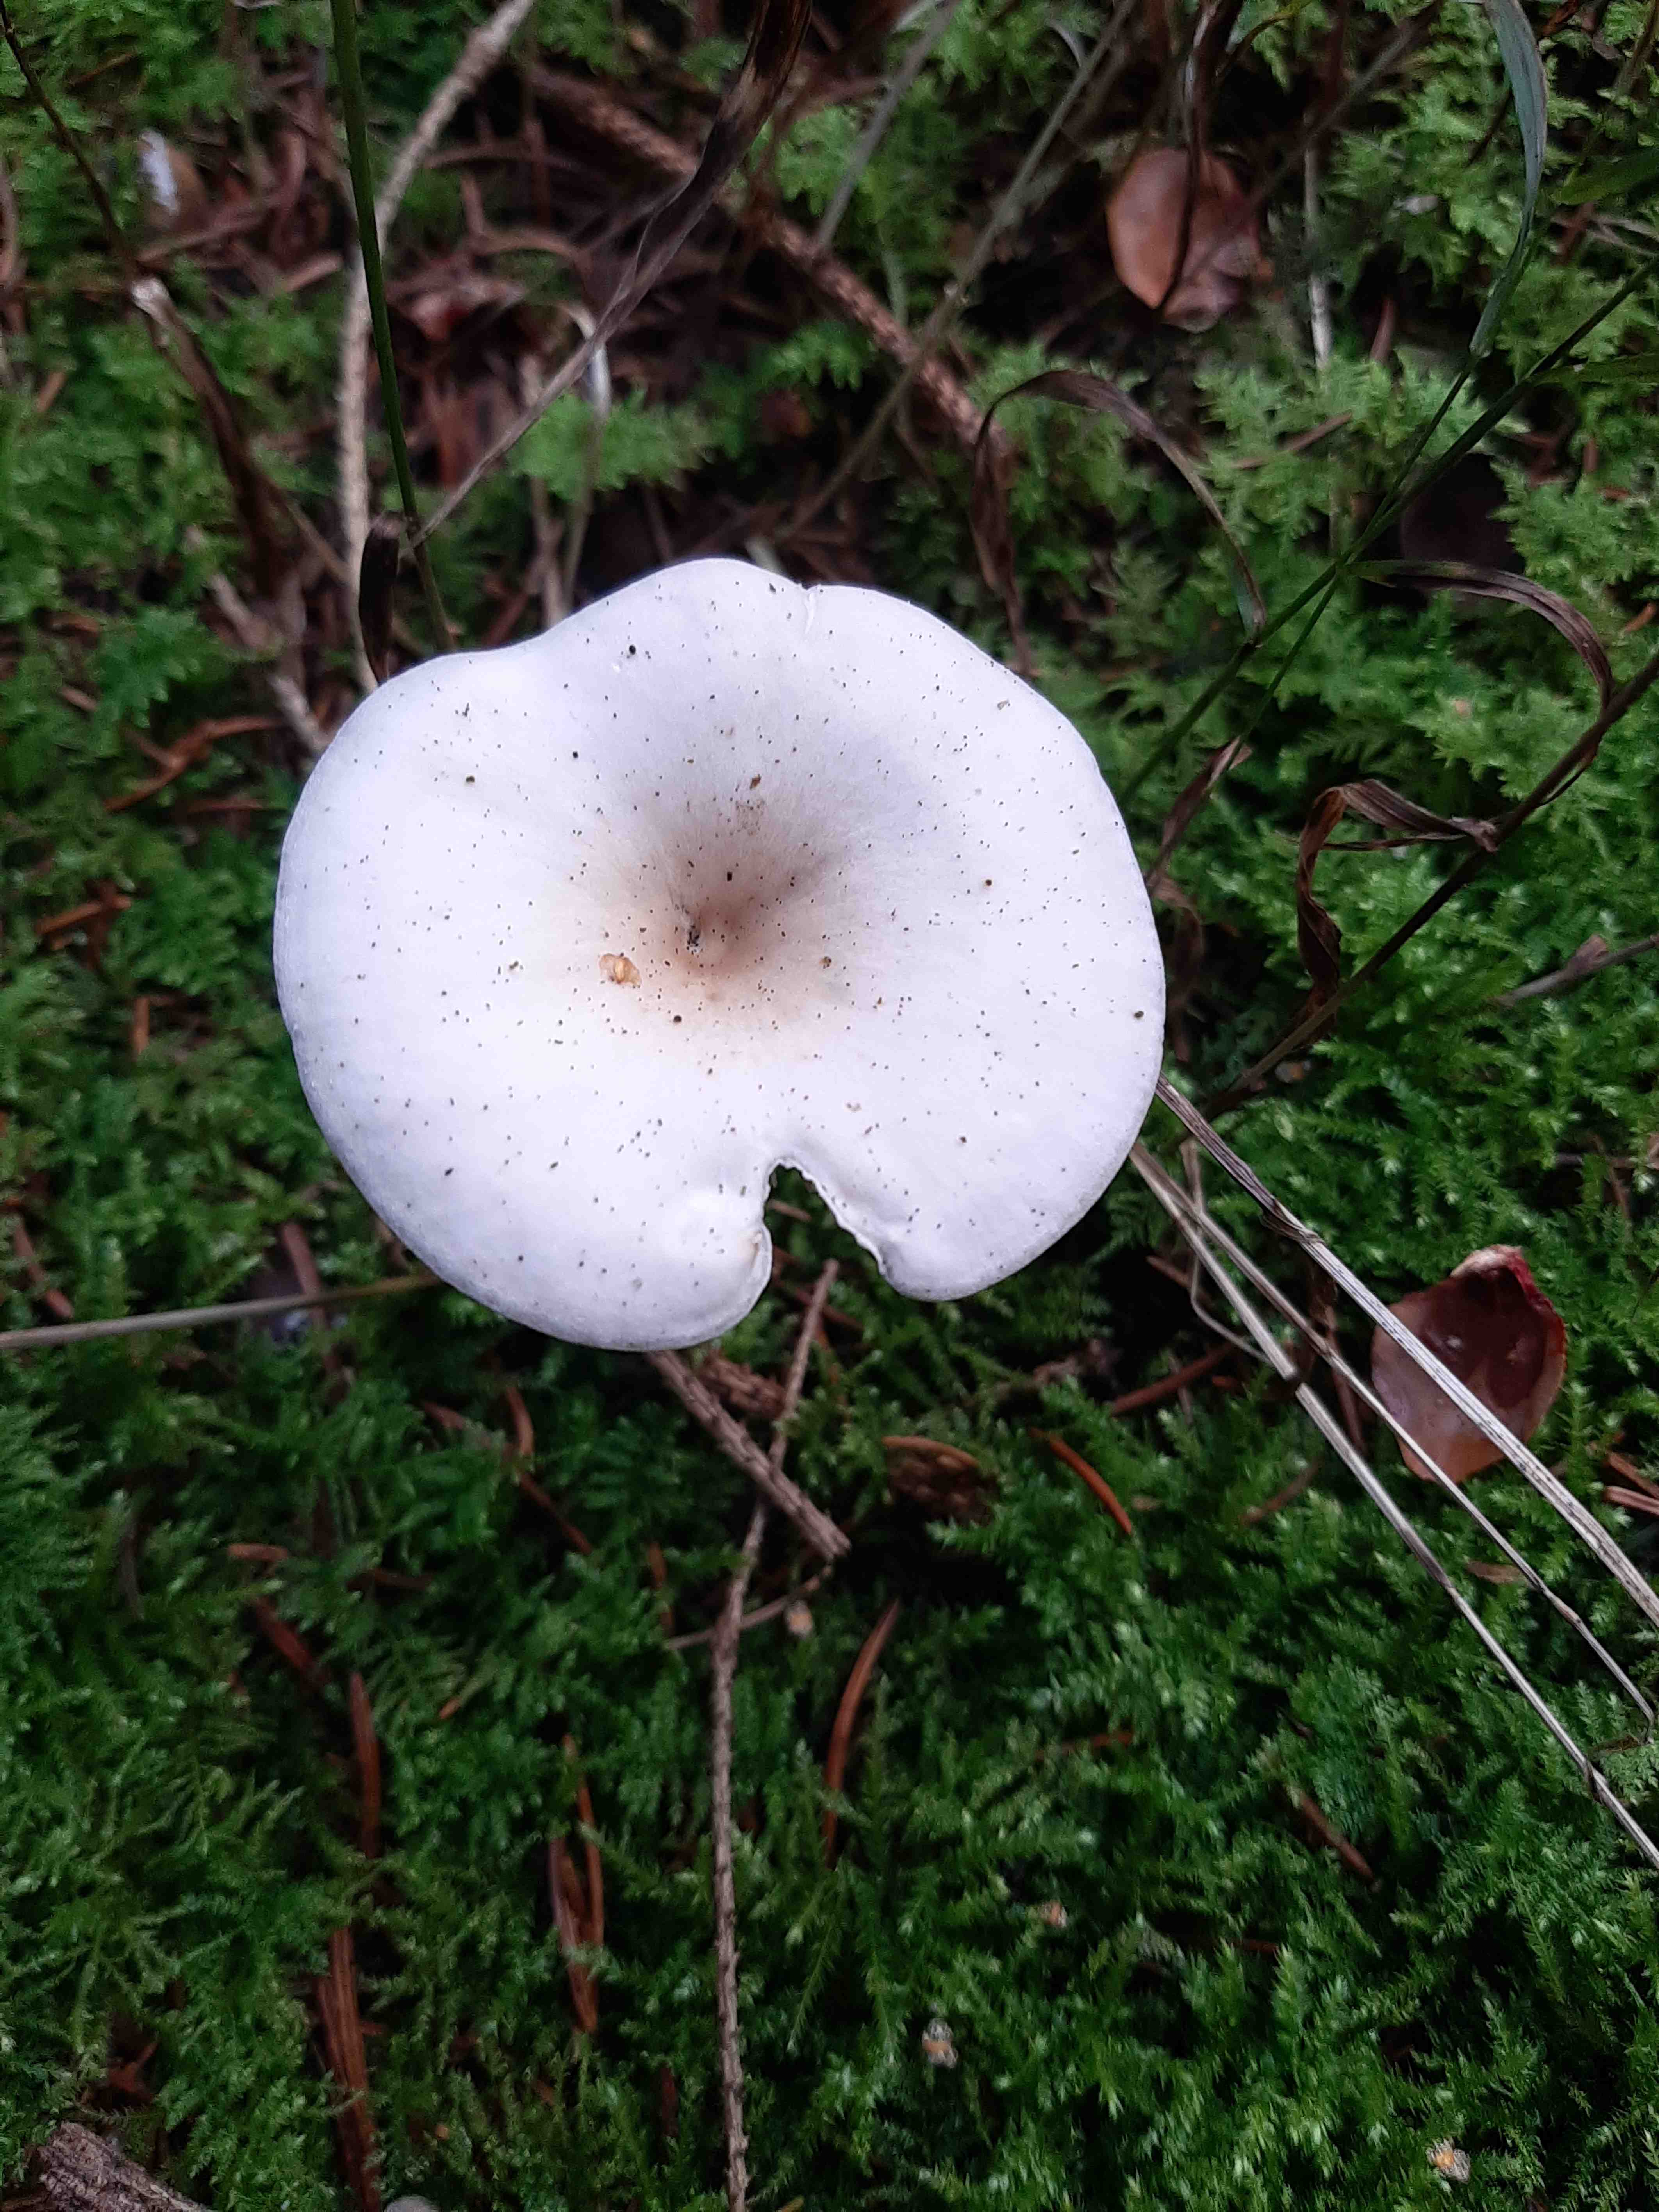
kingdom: Fungi
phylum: Basidiomycota
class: Agaricomycetes
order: Agaricales
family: Tricholomataceae
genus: Clitocybe
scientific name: Clitocybe metachroa
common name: grå tragthat
